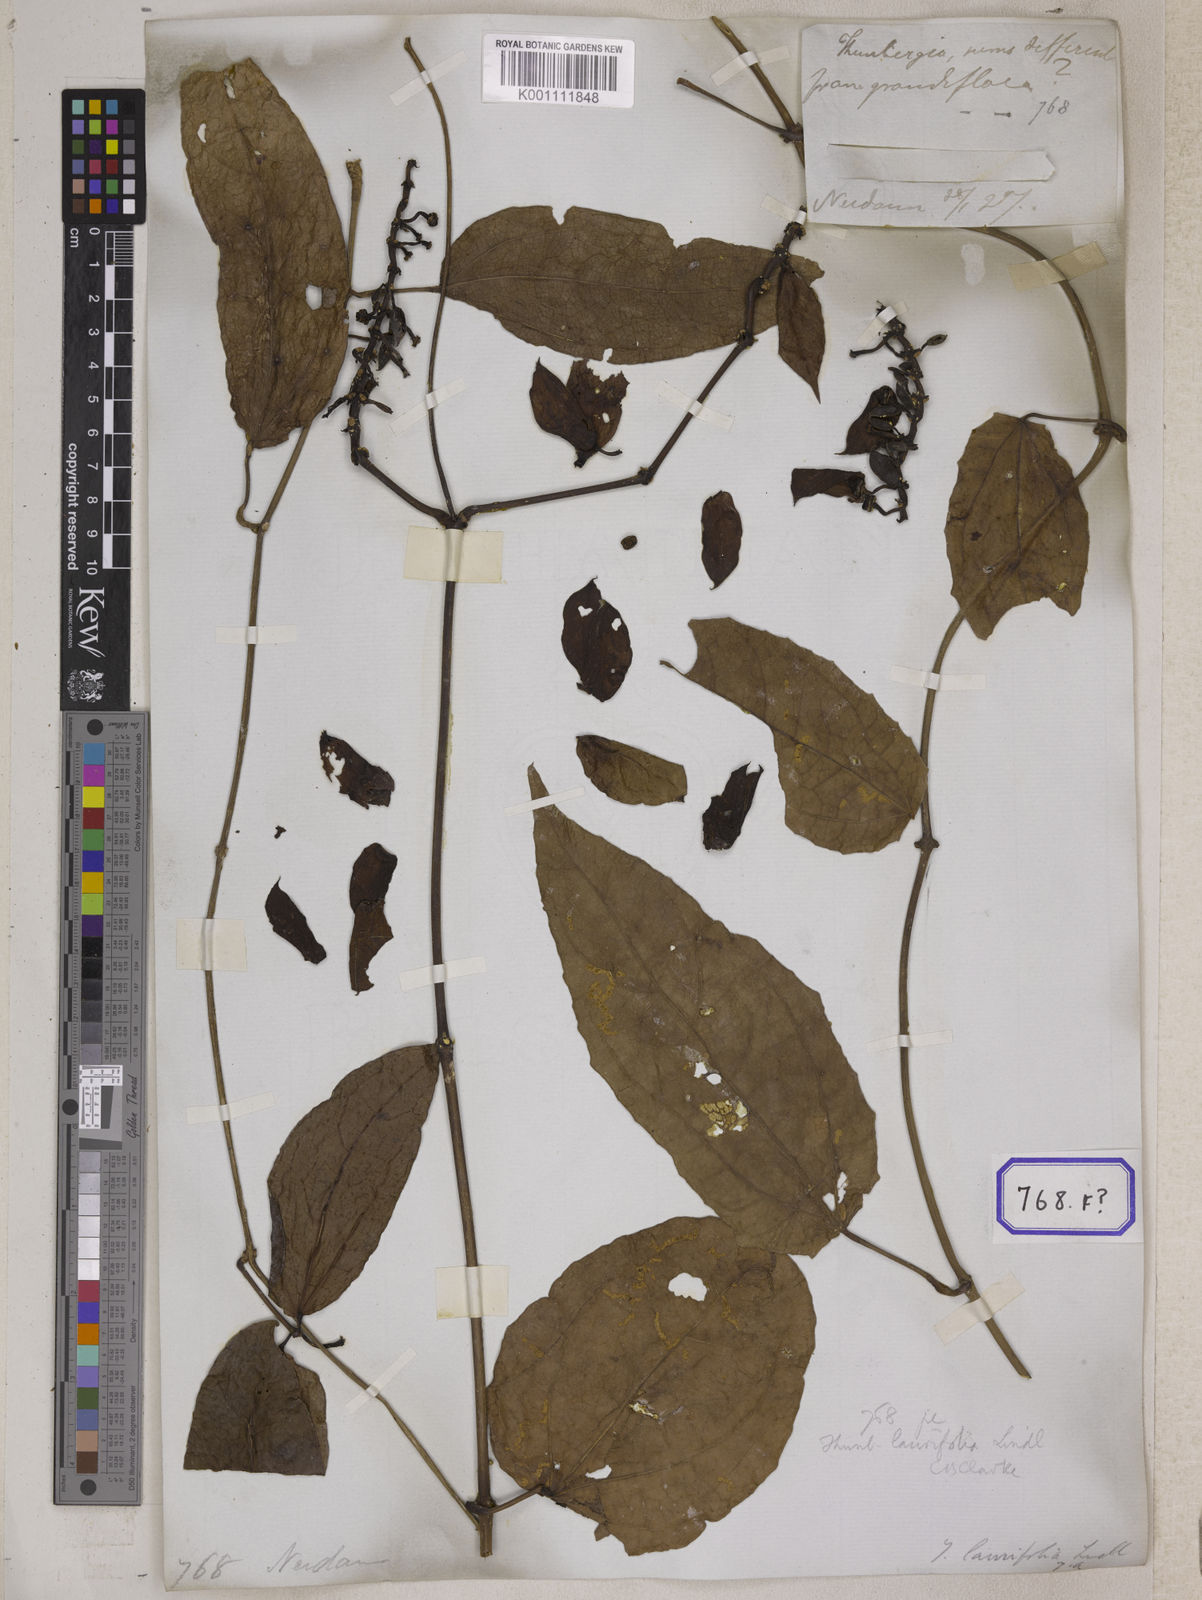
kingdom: Plantae
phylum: Tracheophyta
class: Magnoliopsida
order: Lamiales
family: Acanthaceae
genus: Thunbergia
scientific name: Thunbergia grandiflora
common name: Bengal trumpet
